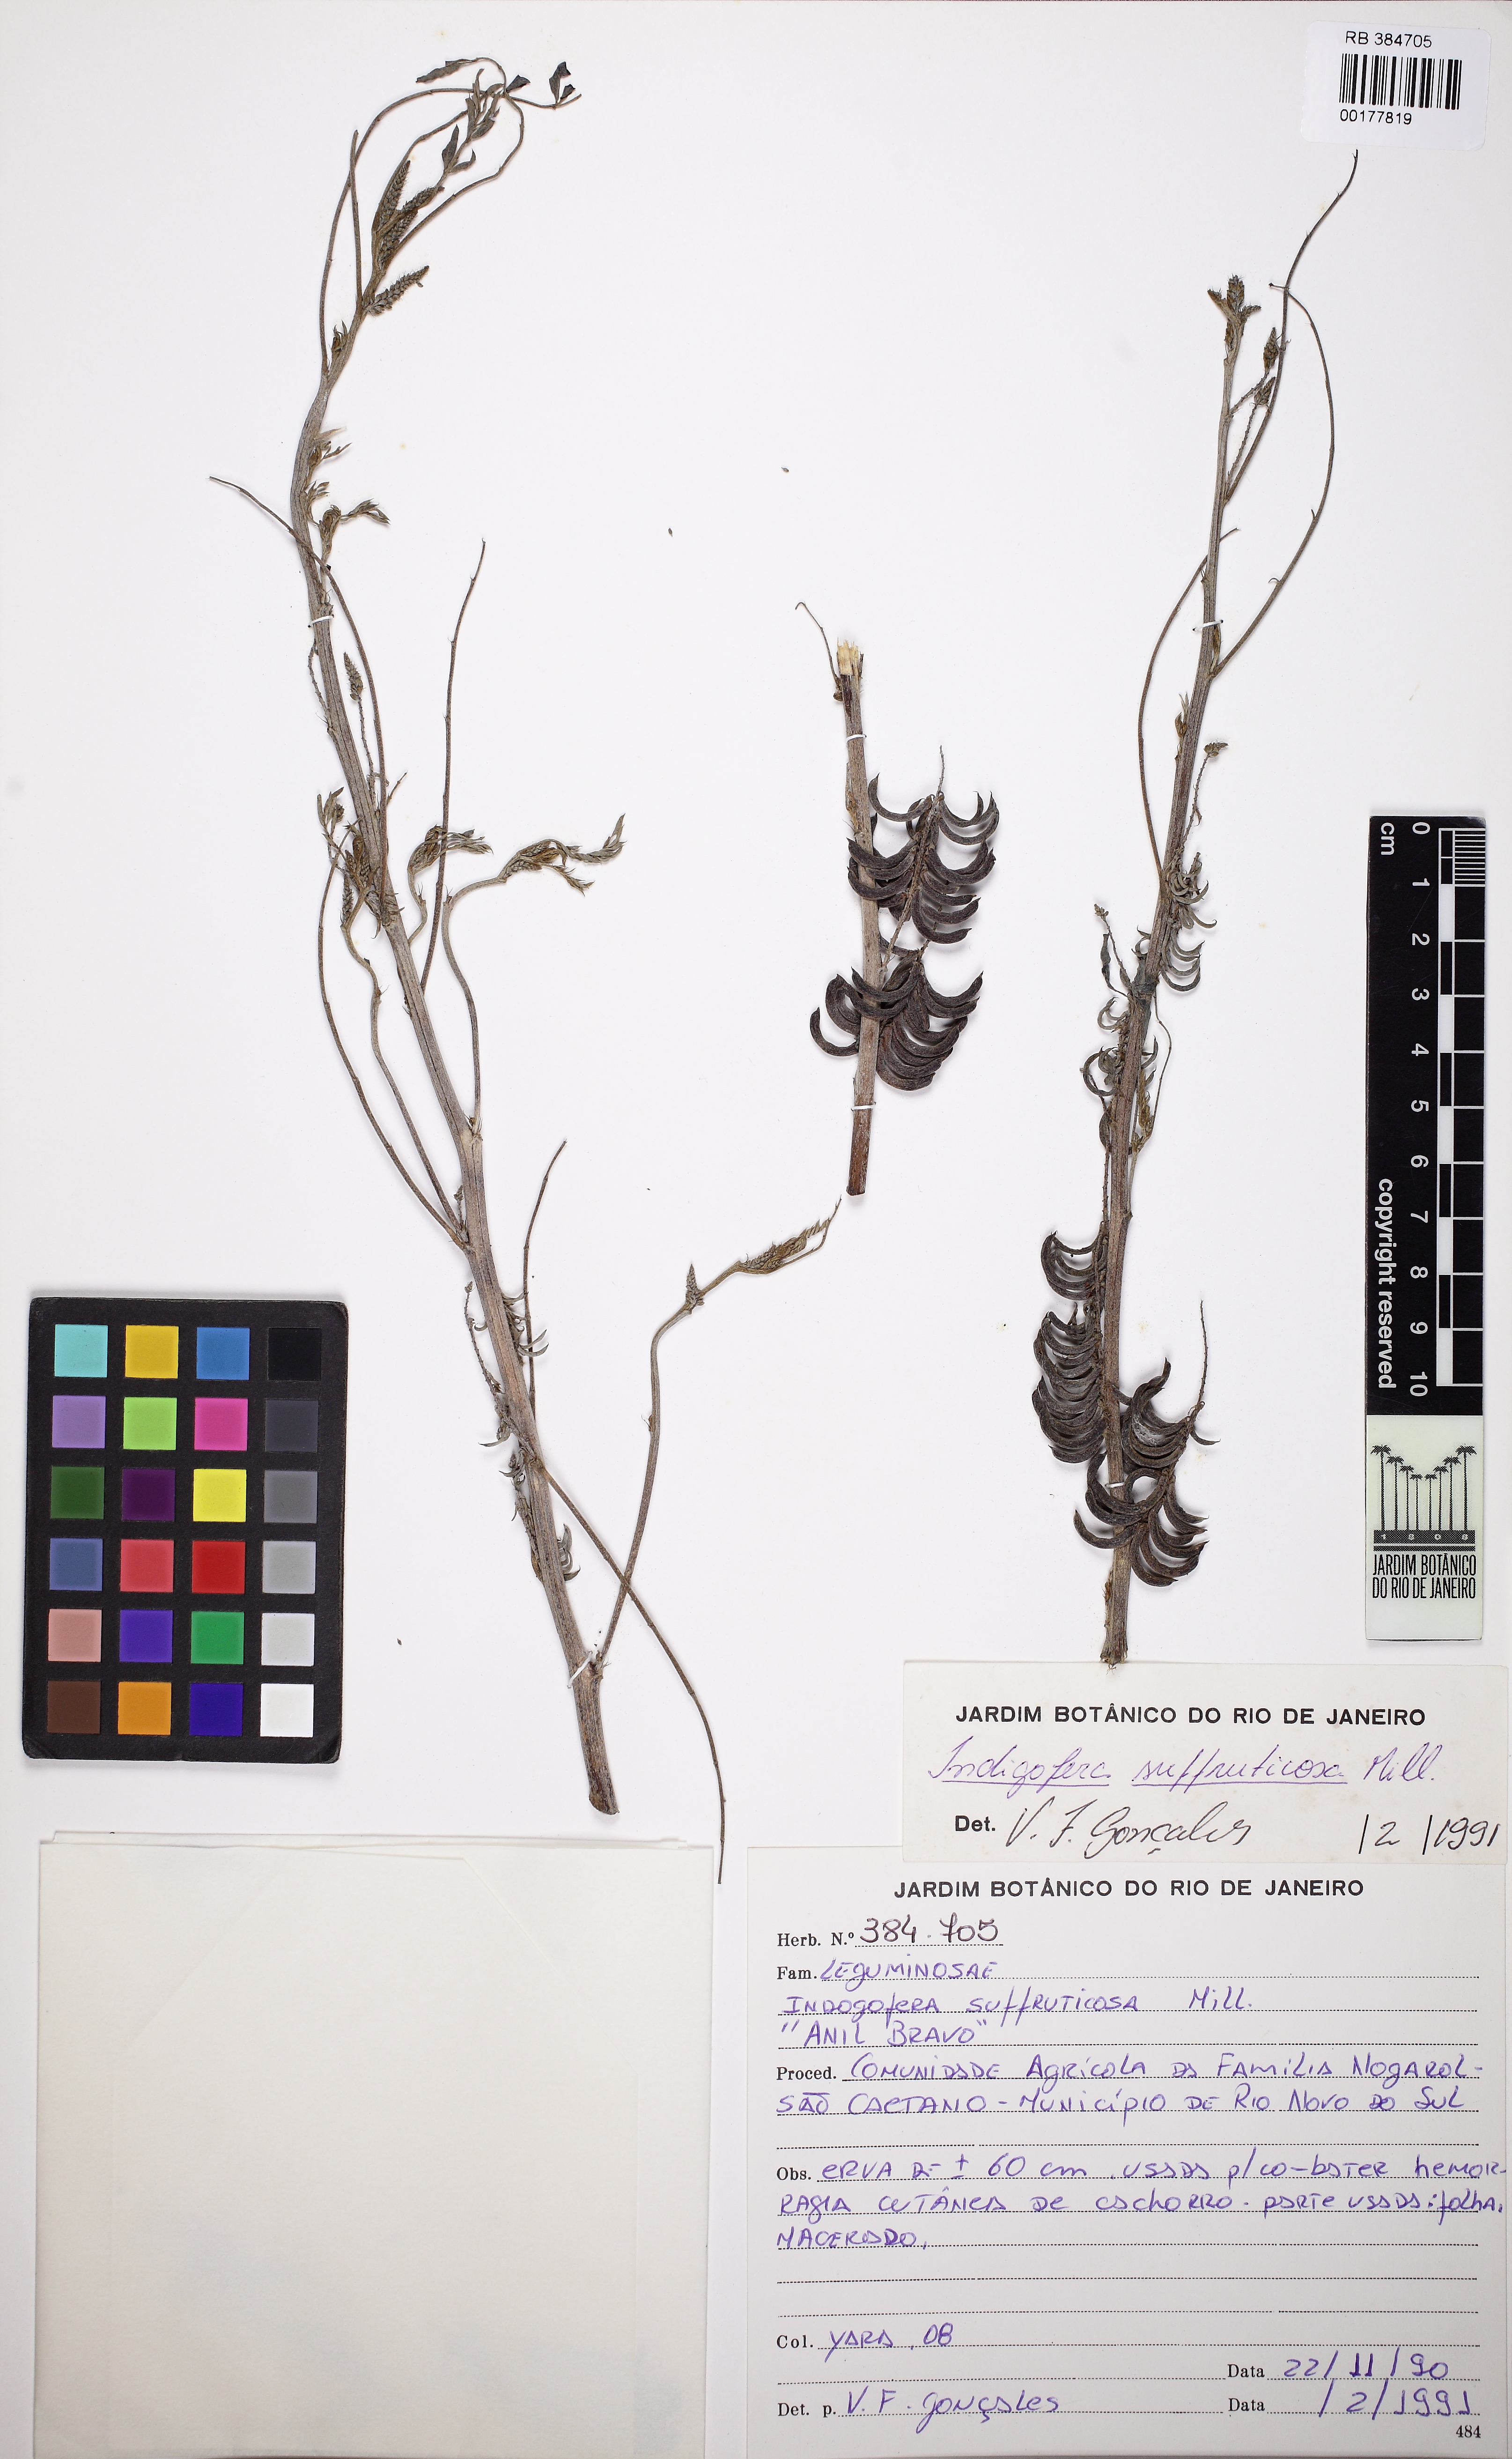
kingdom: Plantae
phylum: Tracheophyta
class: Magnoliopsida
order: Fabales
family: Fabaceae
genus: Indigofera
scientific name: Indigofera suffruticosa
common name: Anil de pasto
